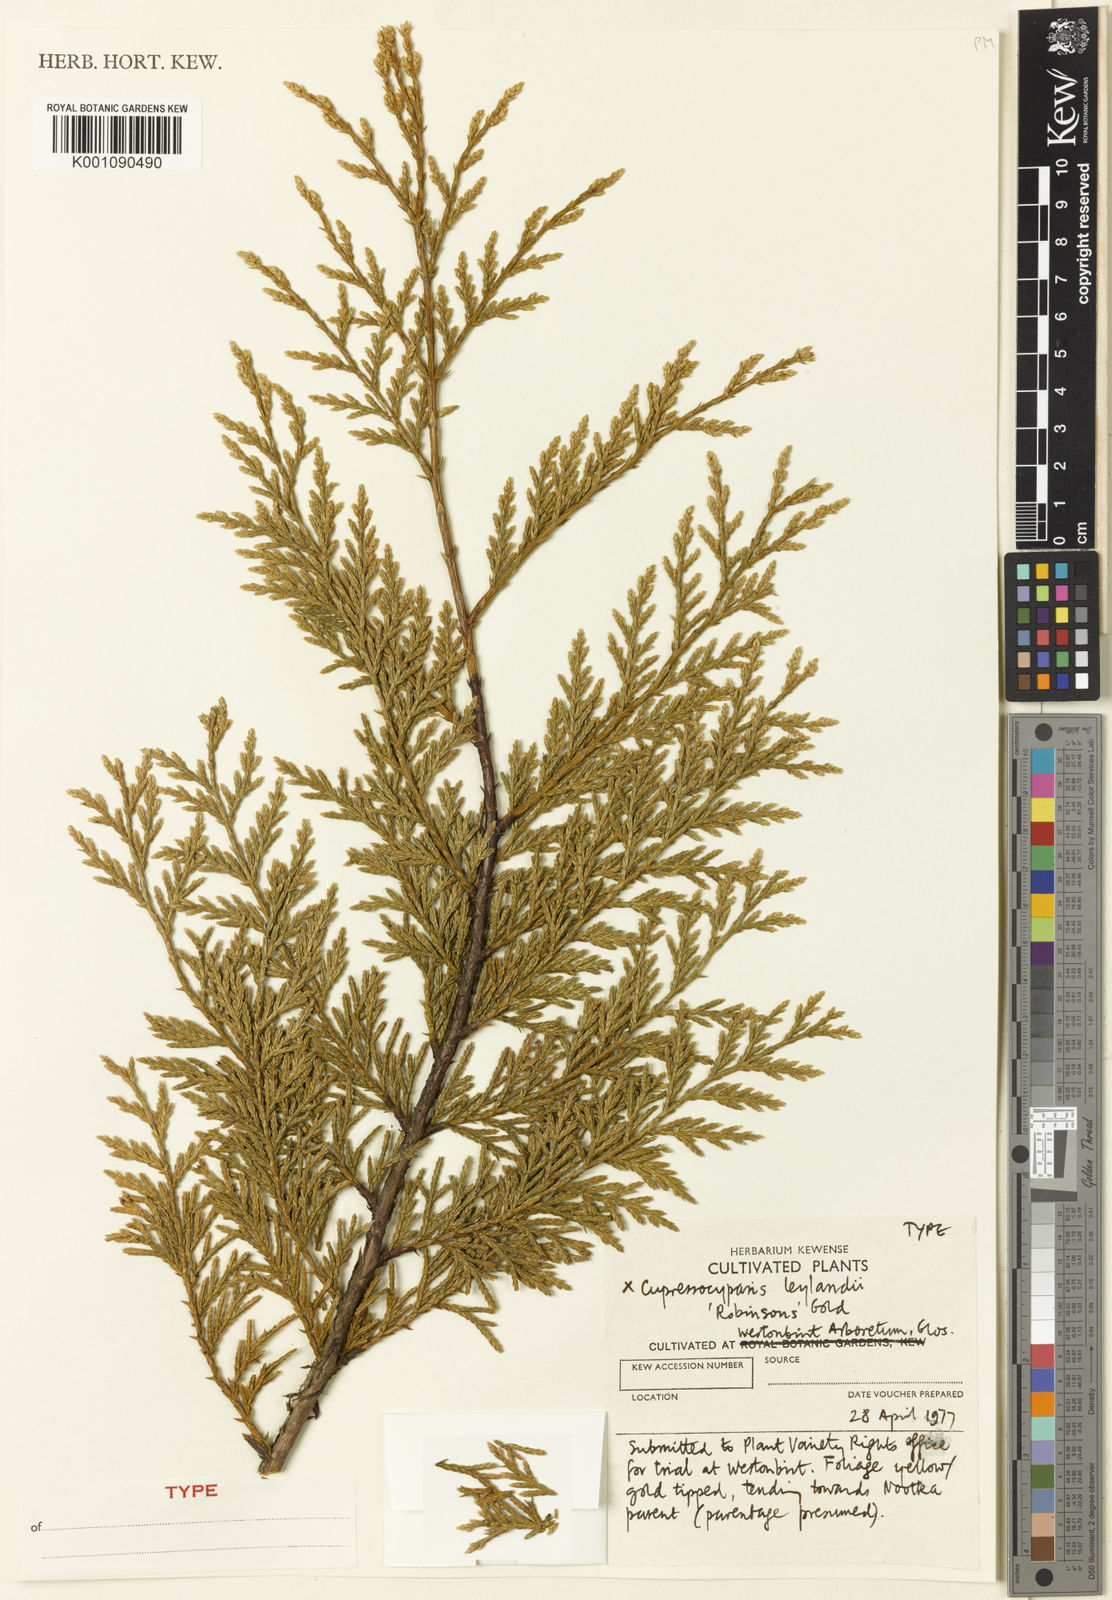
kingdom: Plantae
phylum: Tracheophyta
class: Pinopsida
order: Pinales
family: Cupressaceae
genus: Hesperotropsis
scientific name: Hesperotropsis leylandii
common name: Leyland cypress
